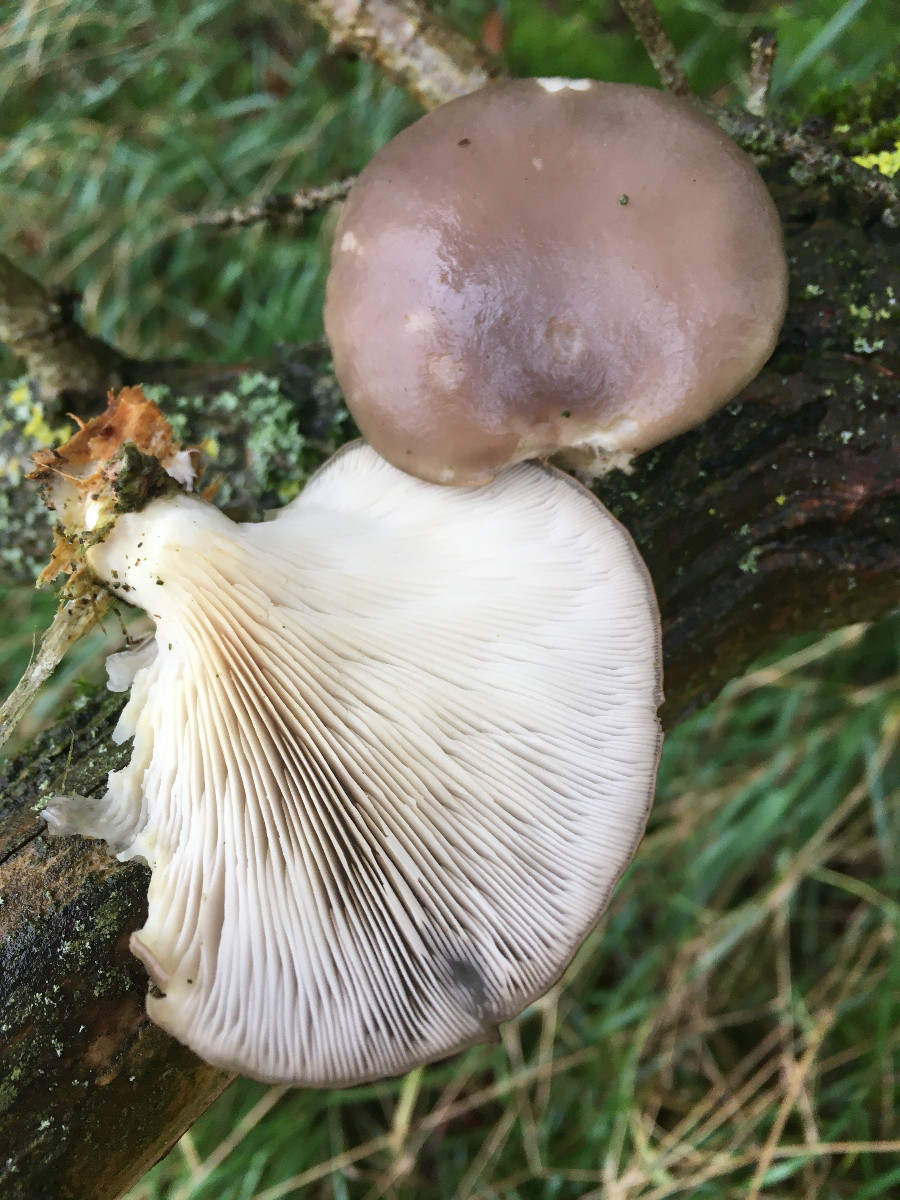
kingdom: Fungi
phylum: Basidiomycota
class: Agaricomycetes
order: Agaricales
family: Pleurotaceae
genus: Pleurotus
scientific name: Pleurotus ostreatus
